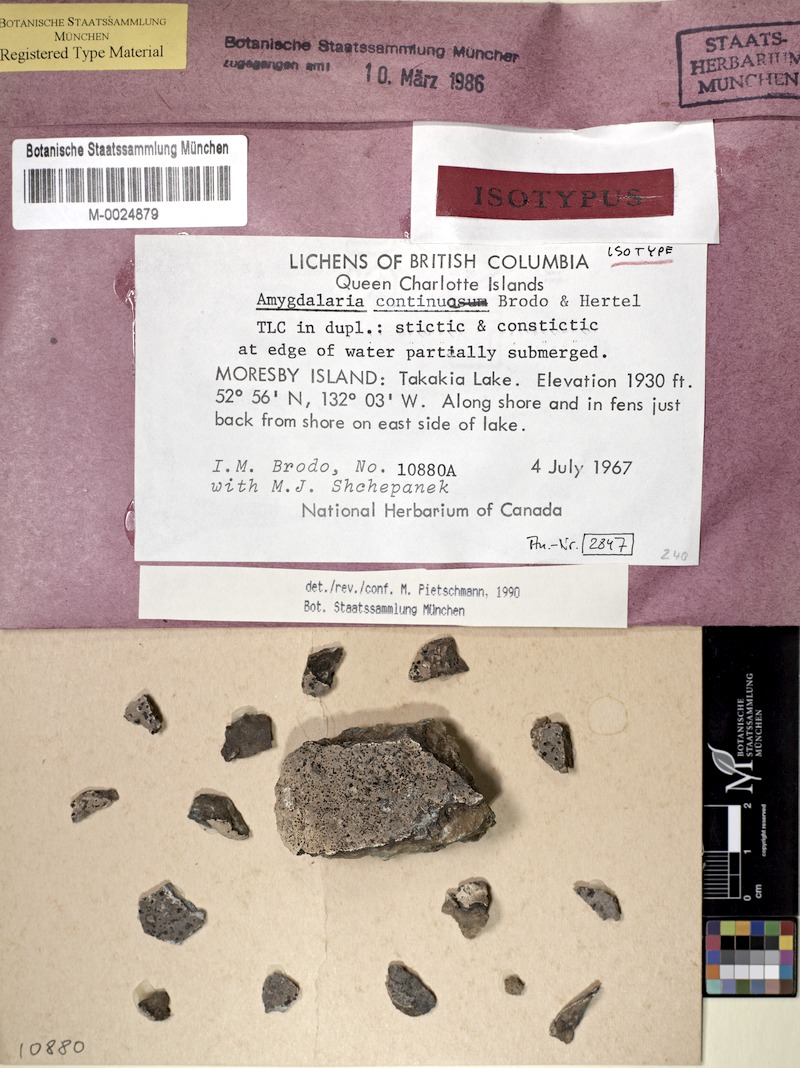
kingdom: Fungi
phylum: Ascomycota
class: Lecanoromycetes
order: Lecideales
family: Lecideaceae
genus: Amygdalaria
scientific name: Amygdalaria continua
